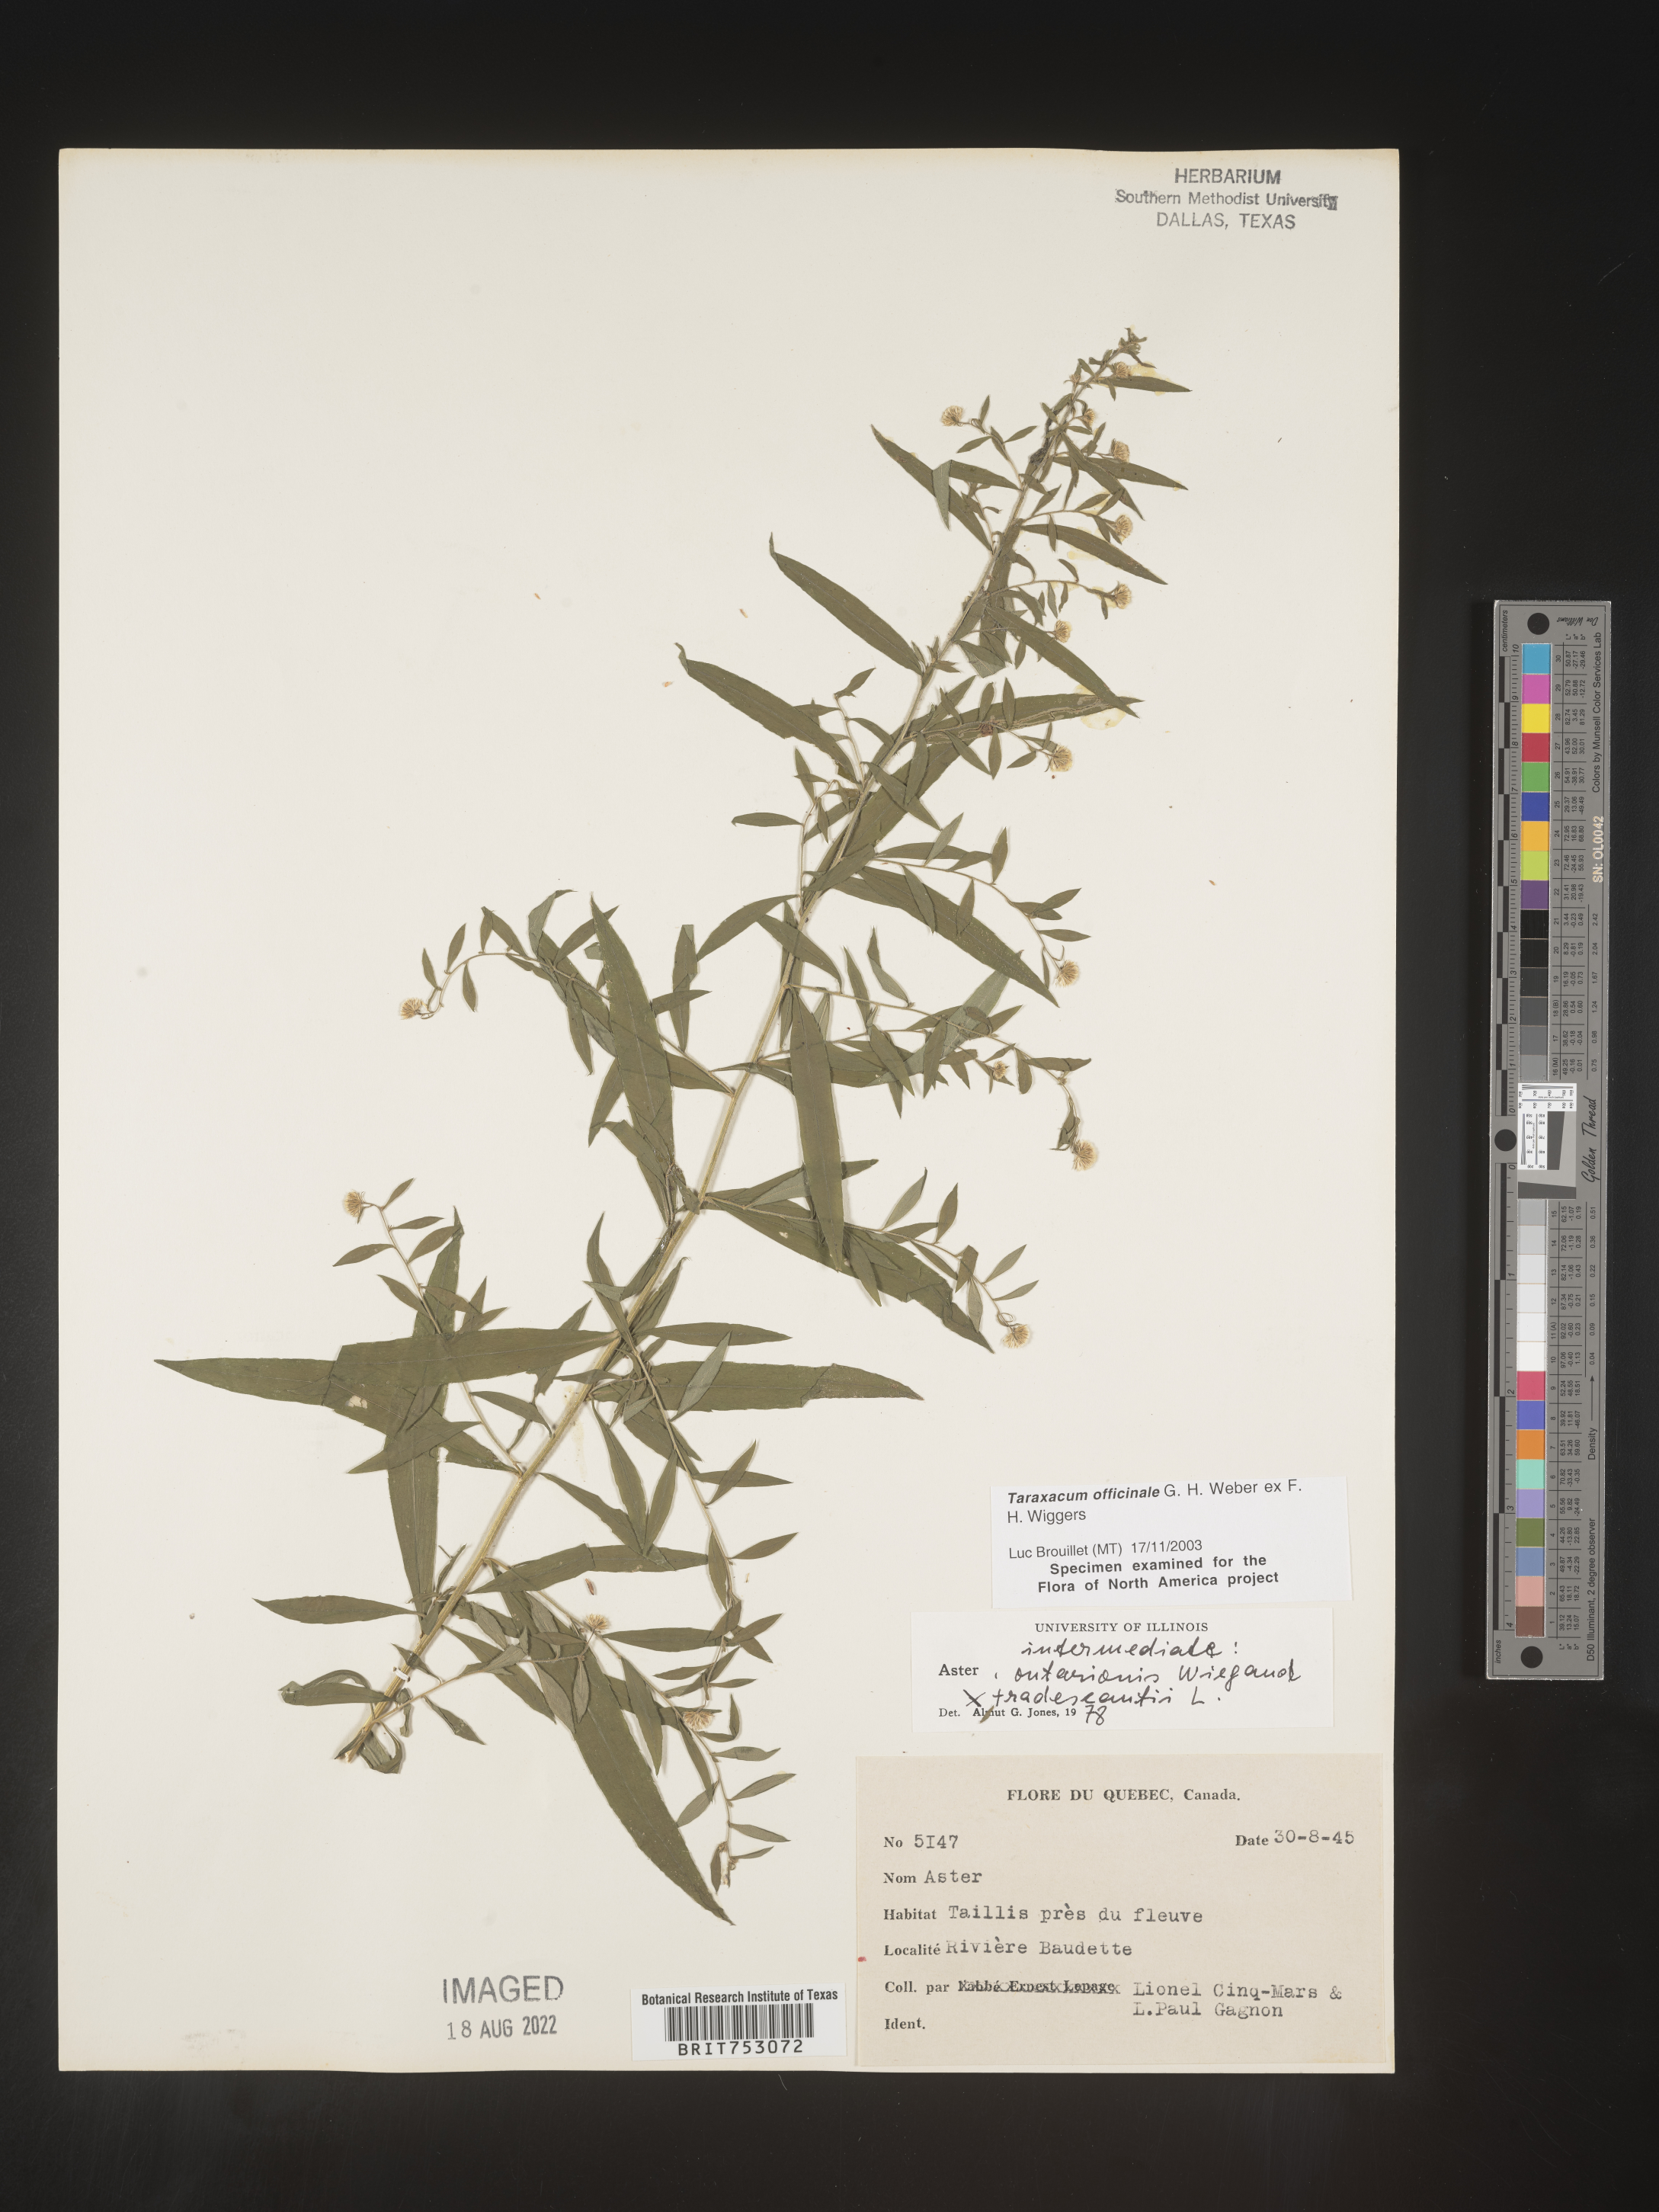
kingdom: Plantae
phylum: Tracheophyta
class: Magnoliopsida
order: Asterales
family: Asteraceae
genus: Symphyotrichum
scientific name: Symphyotrichum ontarionis
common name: Bottomland aster
